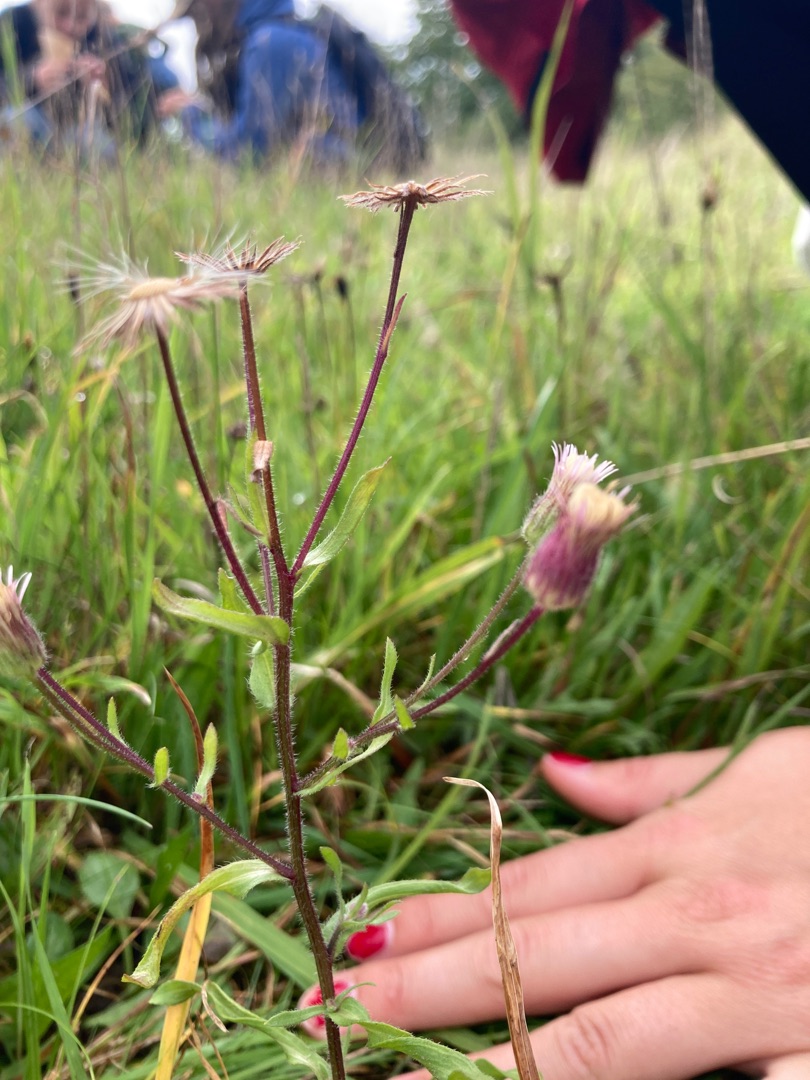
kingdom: Plantae
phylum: Tracheophyta
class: Magnoliopsida
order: Asterales
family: Asteraceae
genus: Erigeron
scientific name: Erigeron muralis
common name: Vreden bakkestjerne
